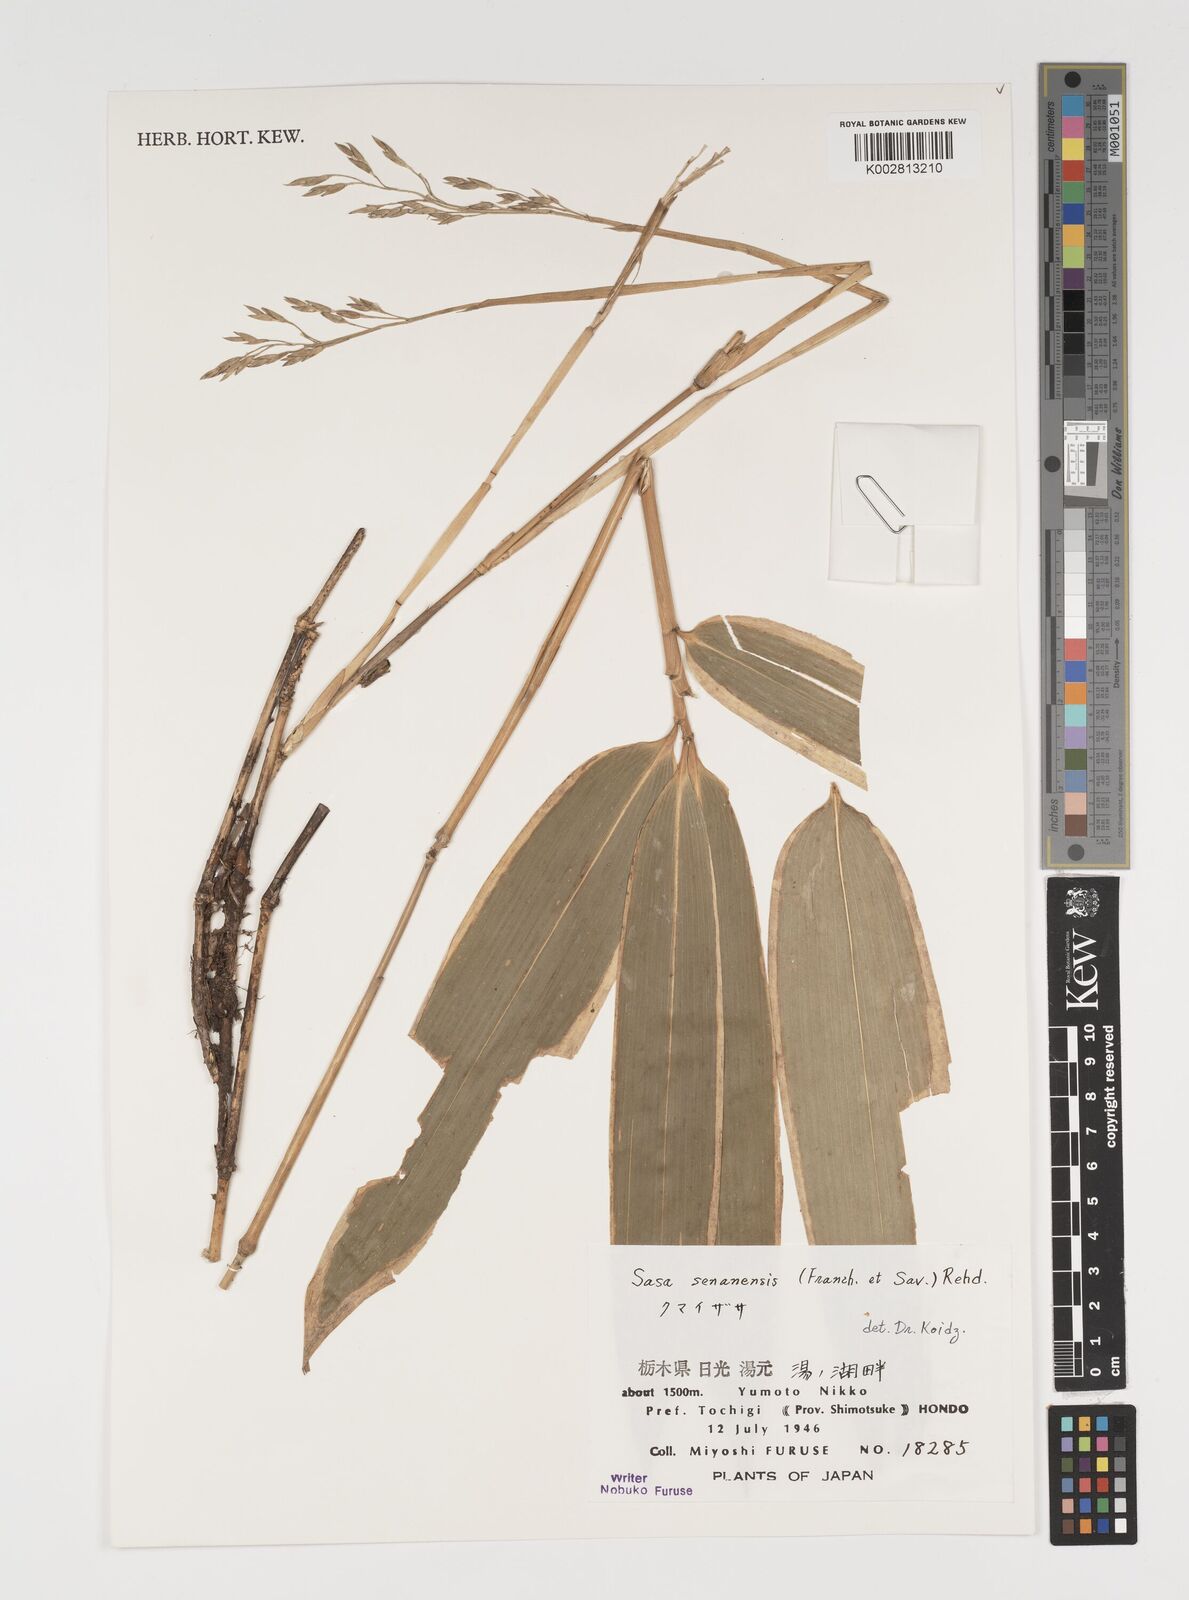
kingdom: Plantae
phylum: Tracheophyta
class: Liliopsida
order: Poales
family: Poaceae
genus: Sasa
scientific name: Sasa senanensis
